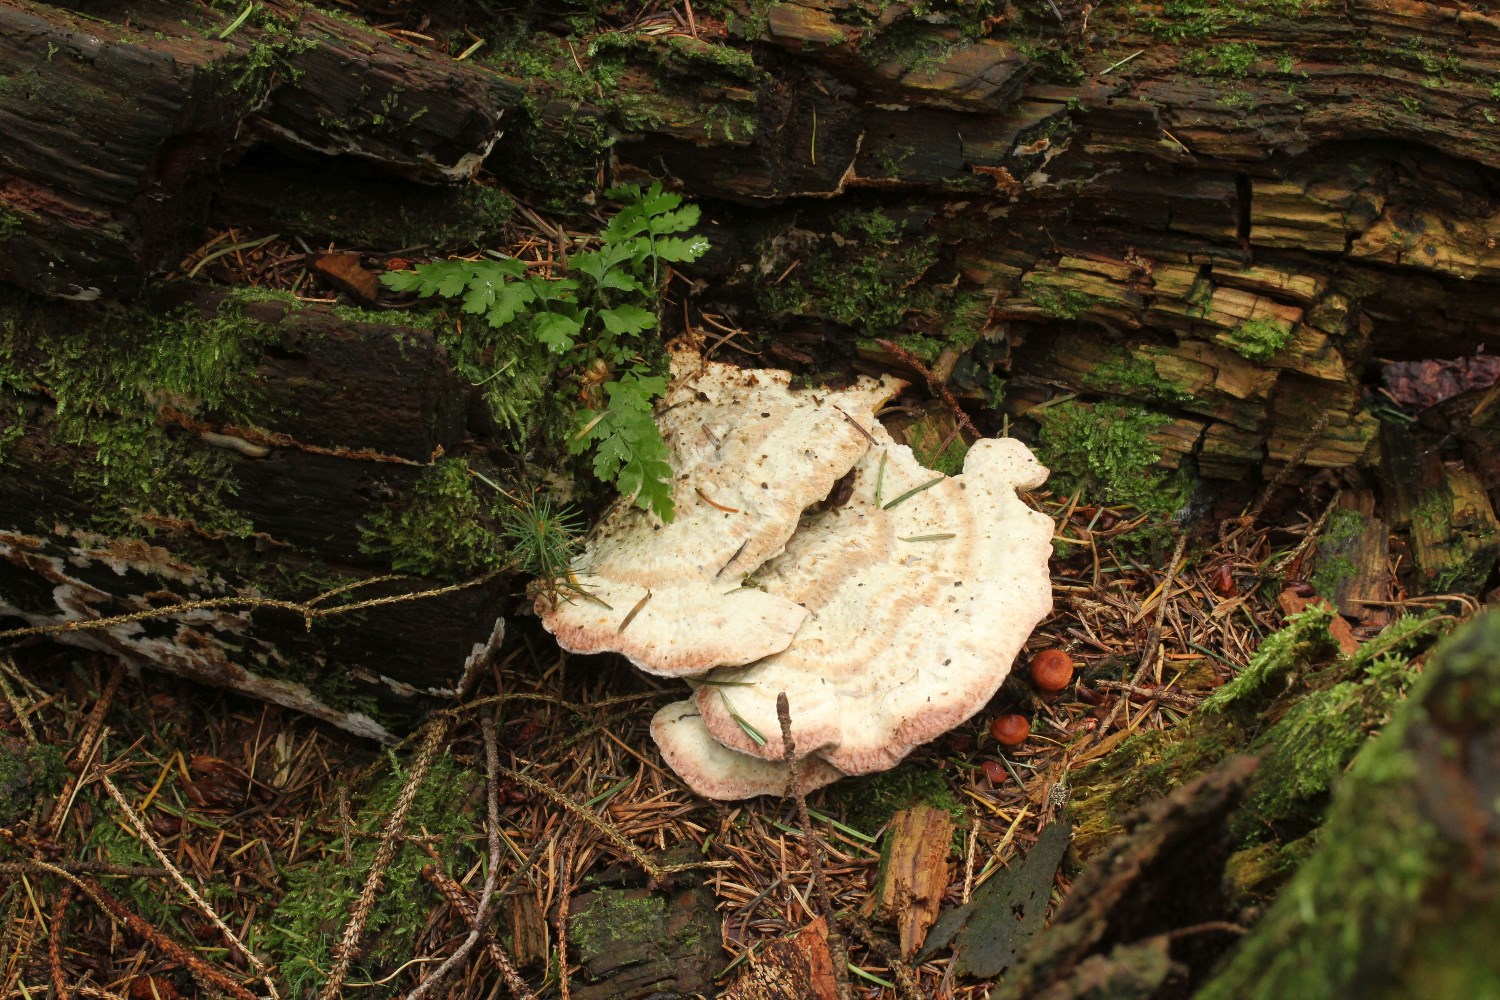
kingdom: Fungi
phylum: Basidiomycota
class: Agaricomycetes
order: Polyporales
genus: Calcipostia
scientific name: Calcipostia guttulata
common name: dråbe-kødporesvamp
